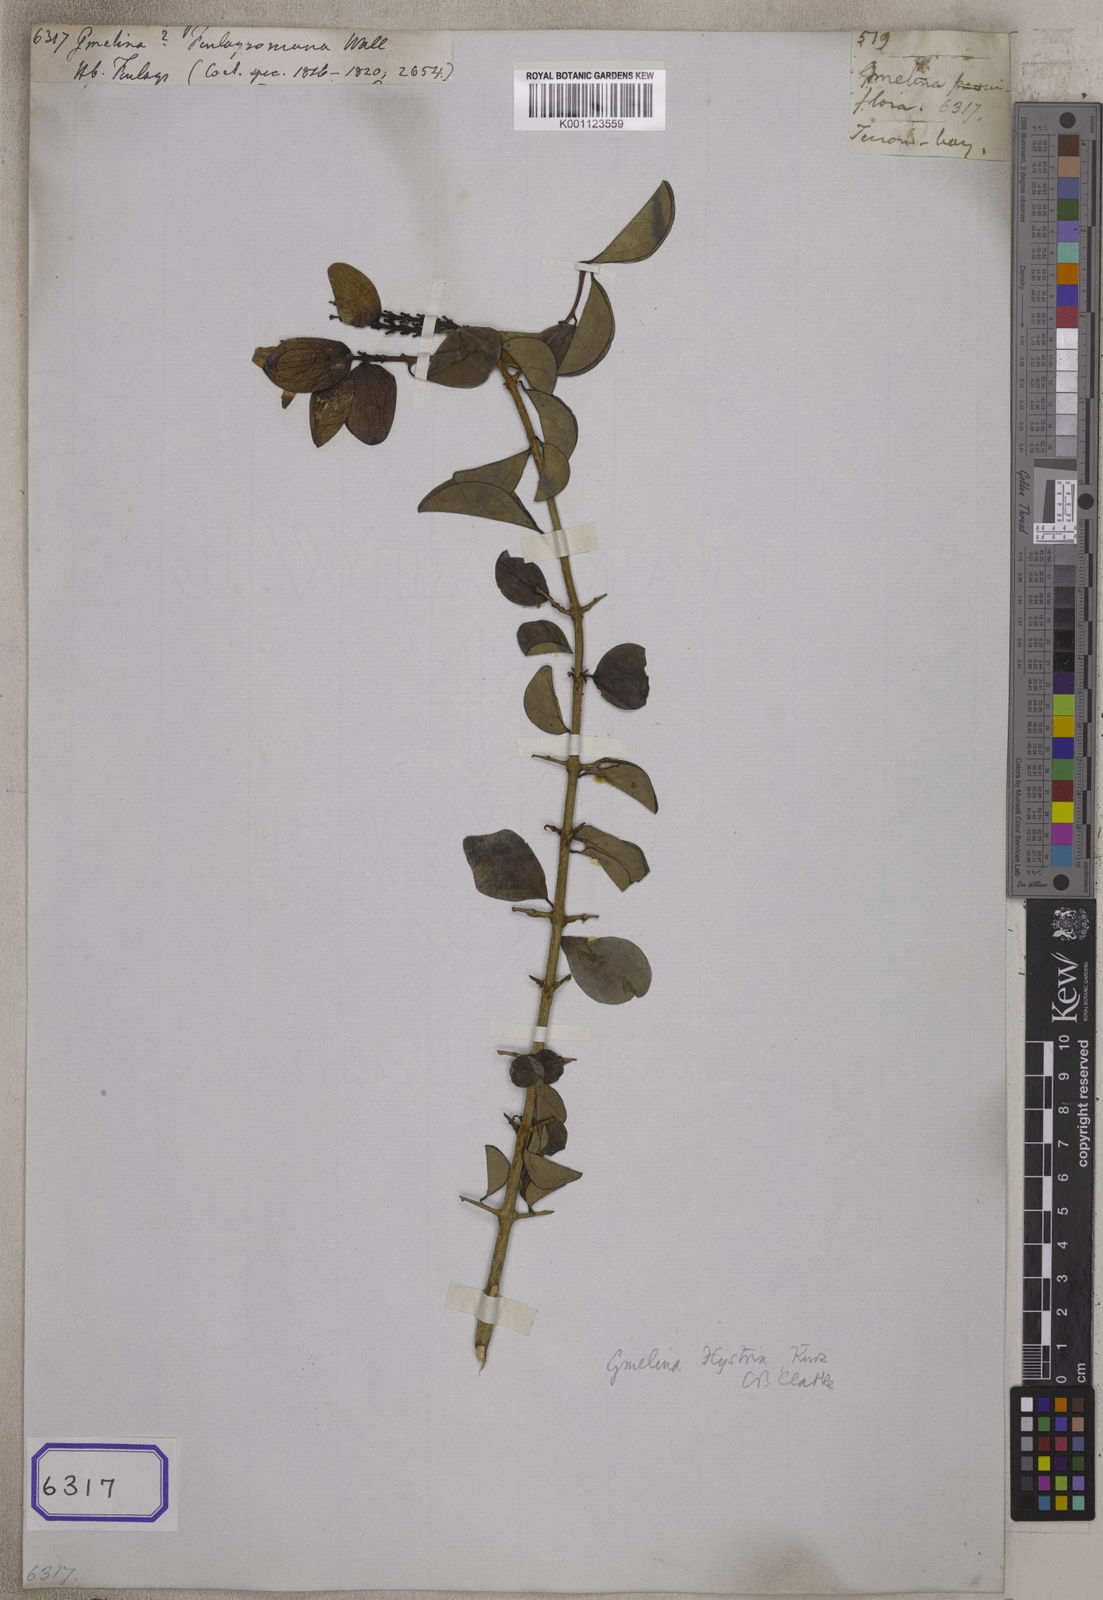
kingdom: Plantae
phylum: Tracheophyta
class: Magnoliopsida
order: Lamiales
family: Lamiaceae
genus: Gmelina
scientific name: Gmelina
